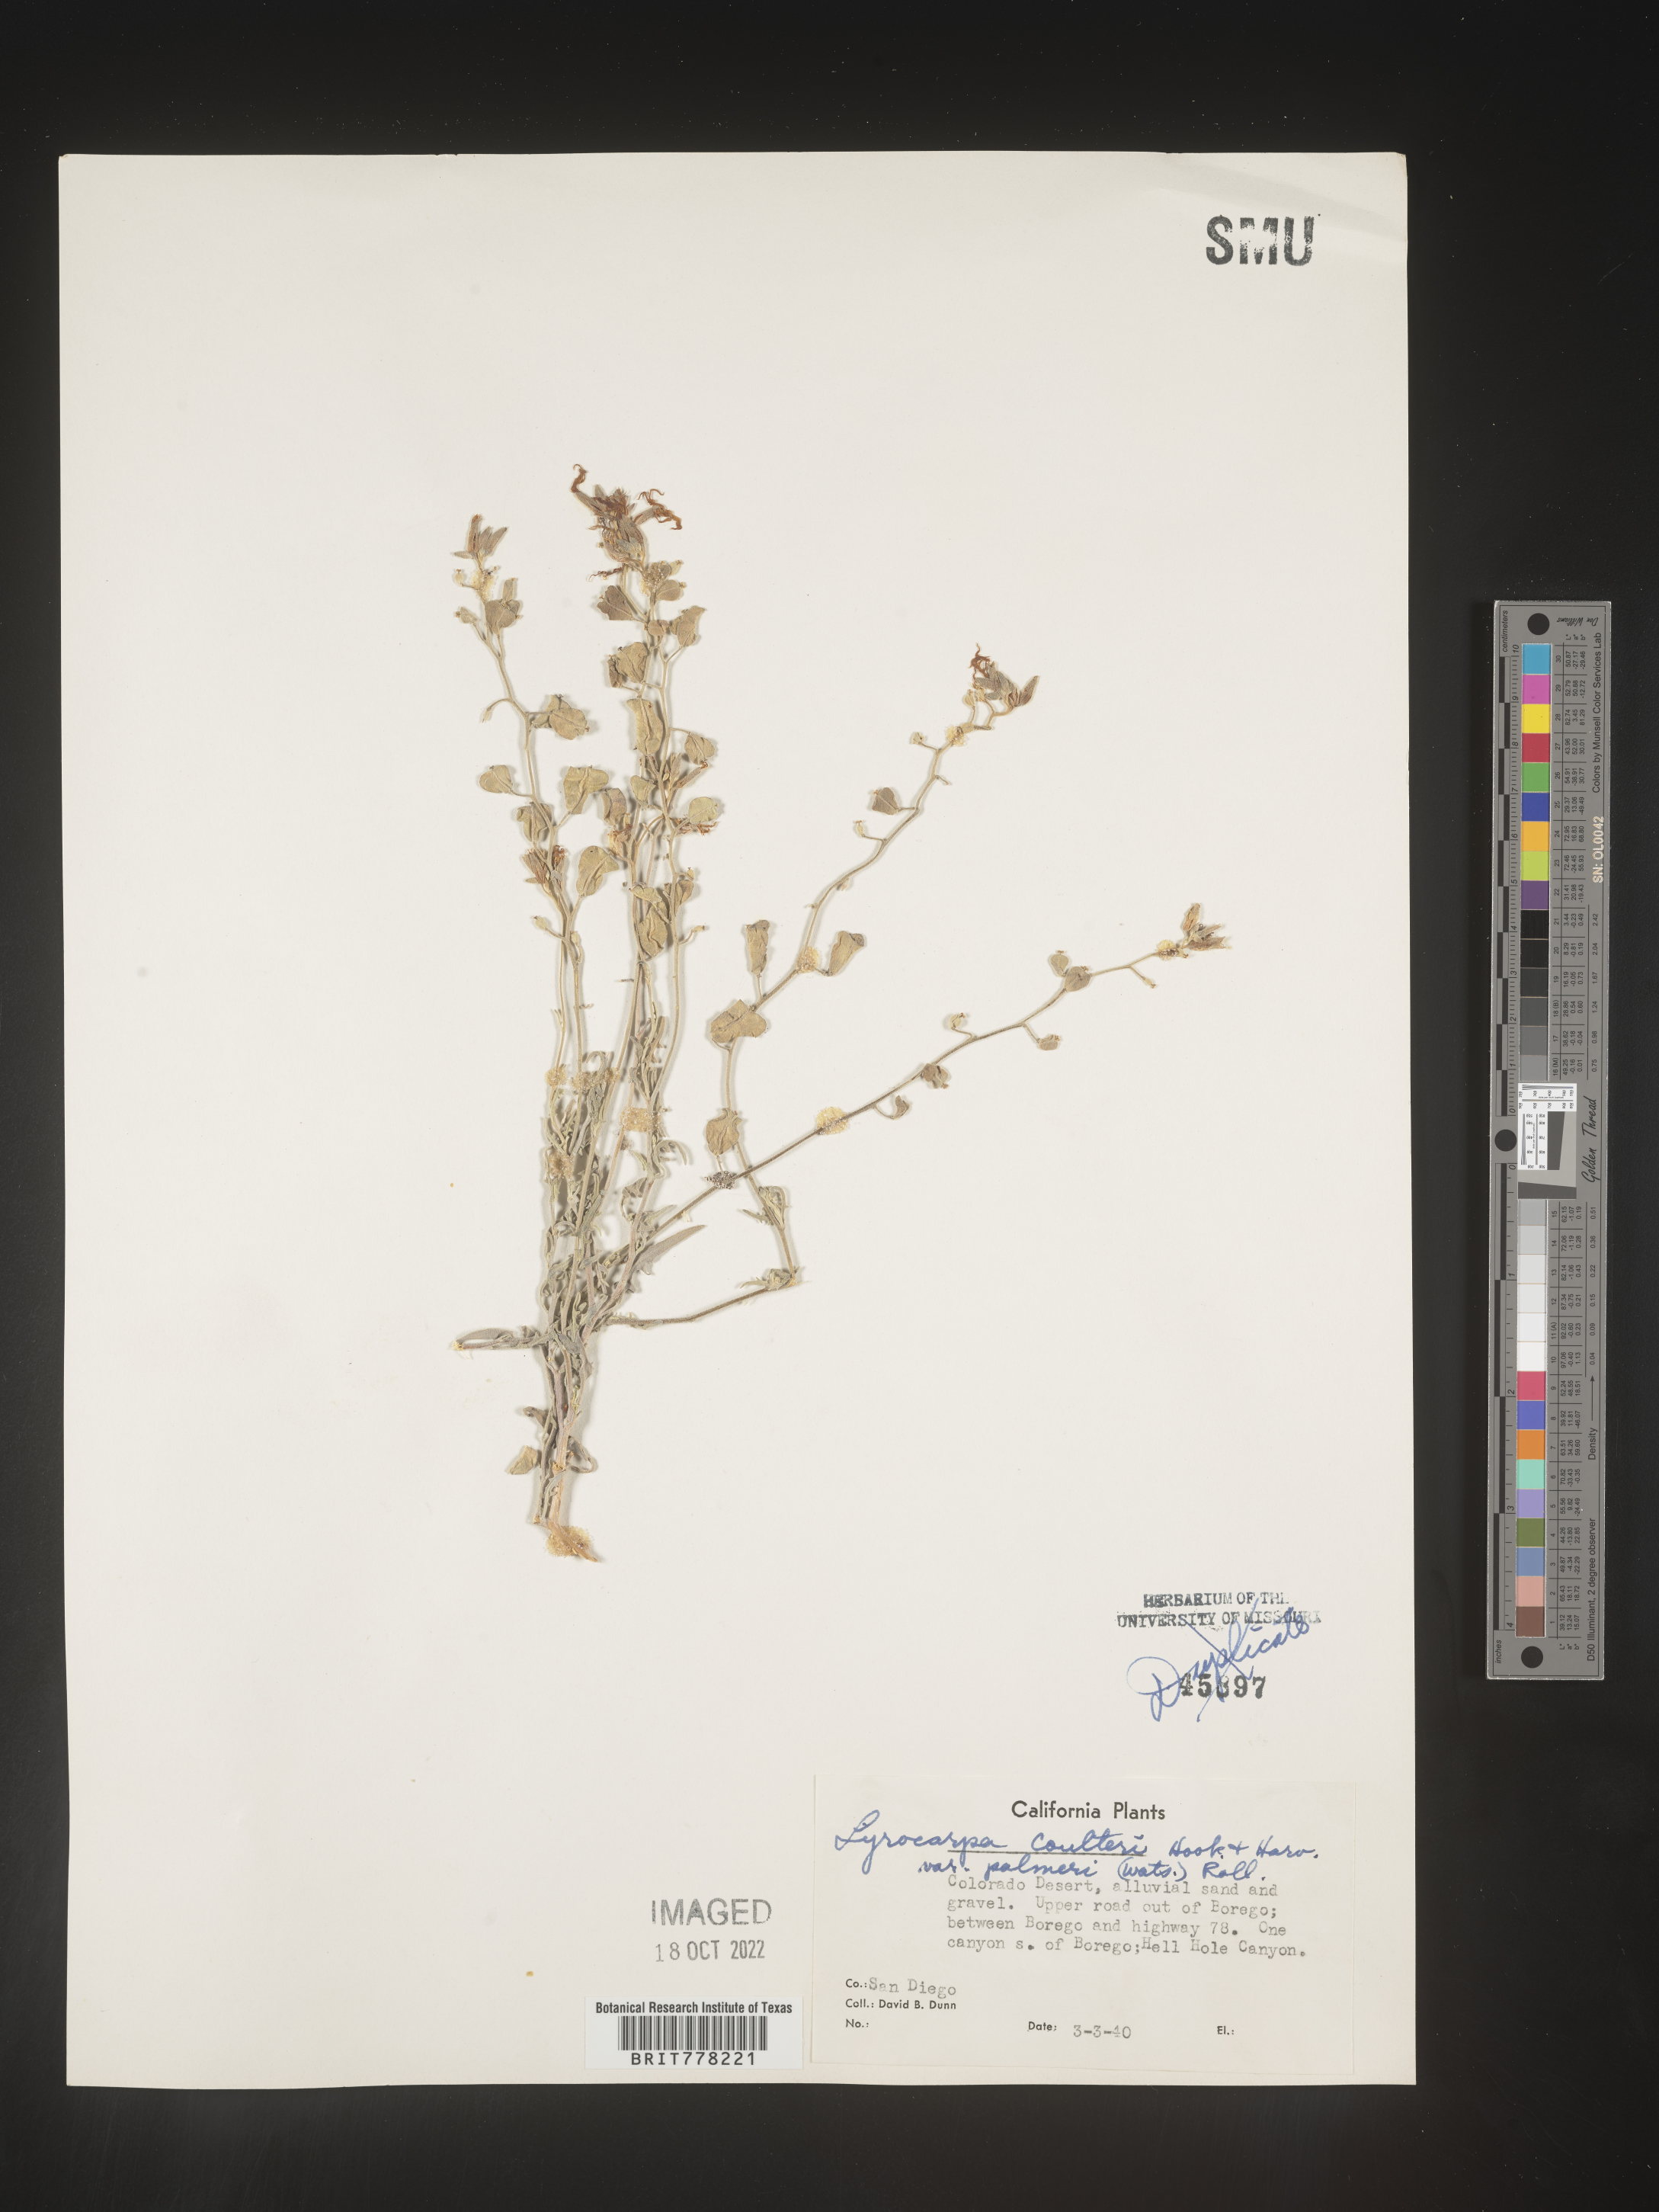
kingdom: Plantae
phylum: Tracheophyta
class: Magnoliopsida
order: Brassicales
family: Brassicaceae
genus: Lyrocarpa
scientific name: Lyrocarpa
